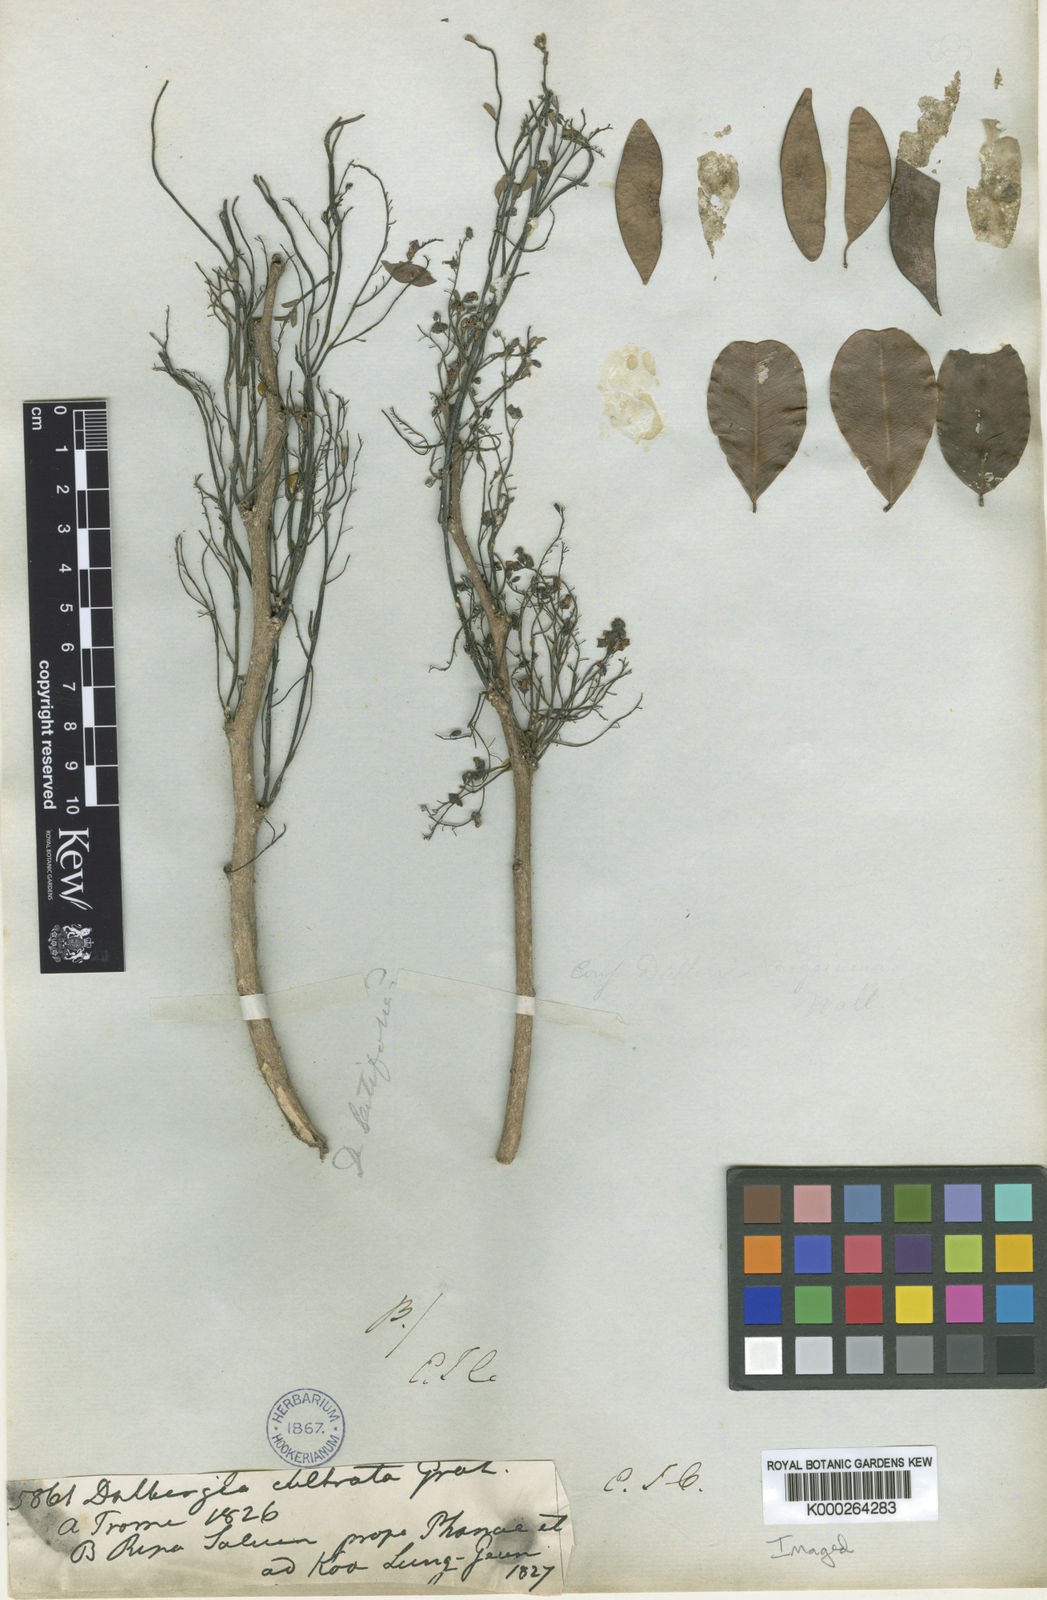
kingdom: Plantae
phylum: Tracheophyta
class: Magnoliopsida
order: Fabales
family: Fabaceae
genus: Dalbergia
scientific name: Dalbergia
